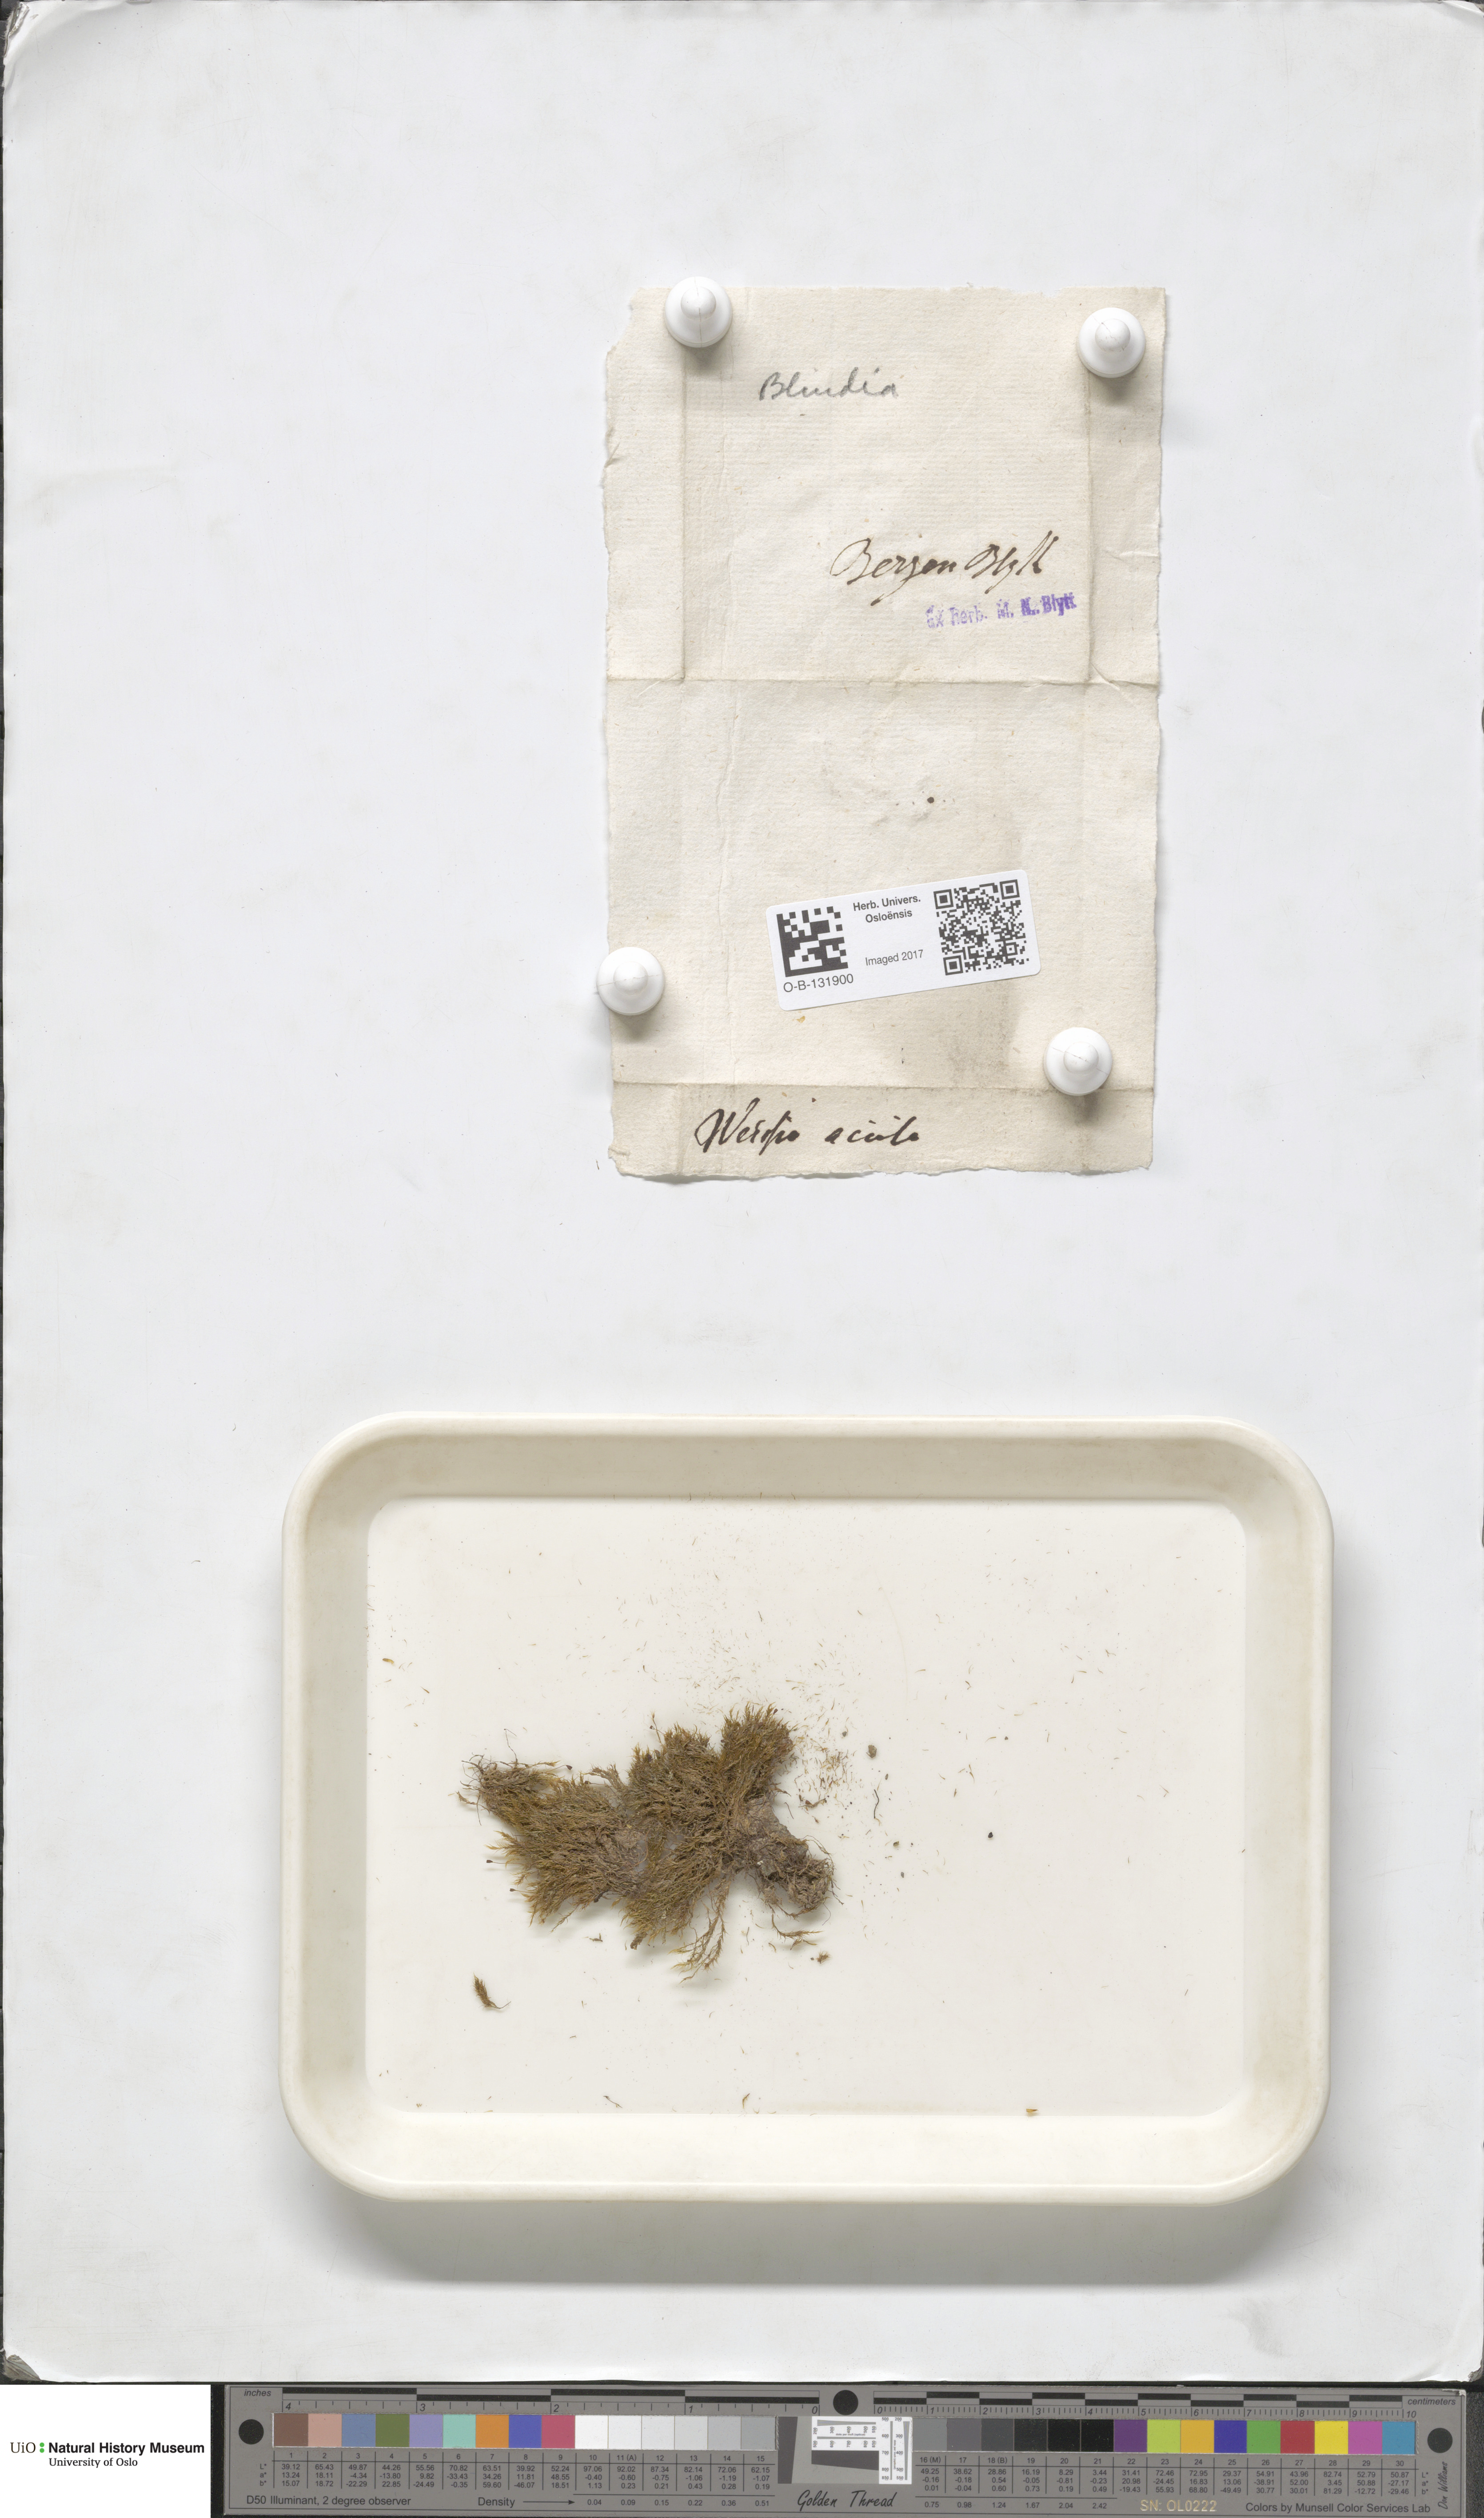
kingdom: Plantae
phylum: Bryophyta
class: Bryopsida
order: Grimmiales
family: Seligeriaceae
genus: Blindia
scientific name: Blindia acuta
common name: Sharp-leaved blind's moss
